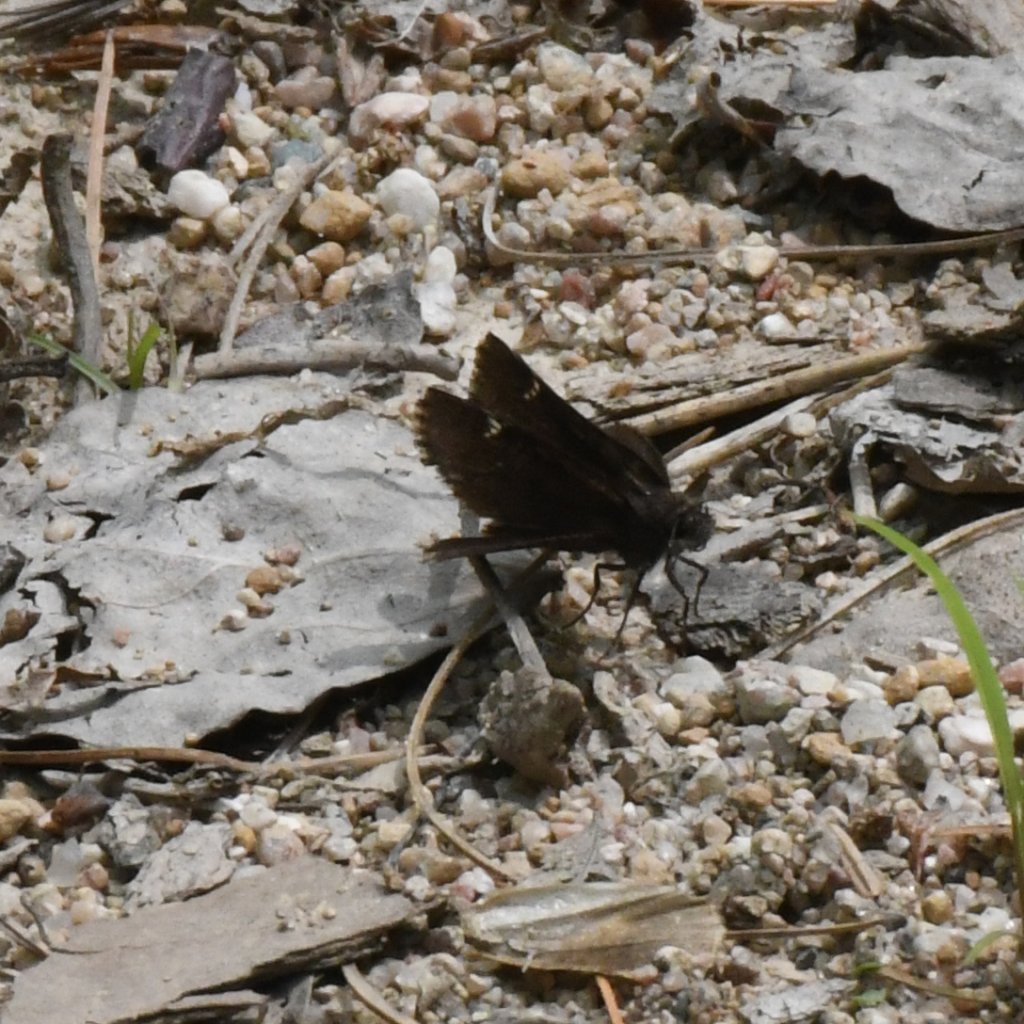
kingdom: Animalia
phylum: Arthropoda
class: Insecta
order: Lepidoptera
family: Hesperiidae
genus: Mastor
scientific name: Mastor vialis
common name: Common Roadside-Skipper
